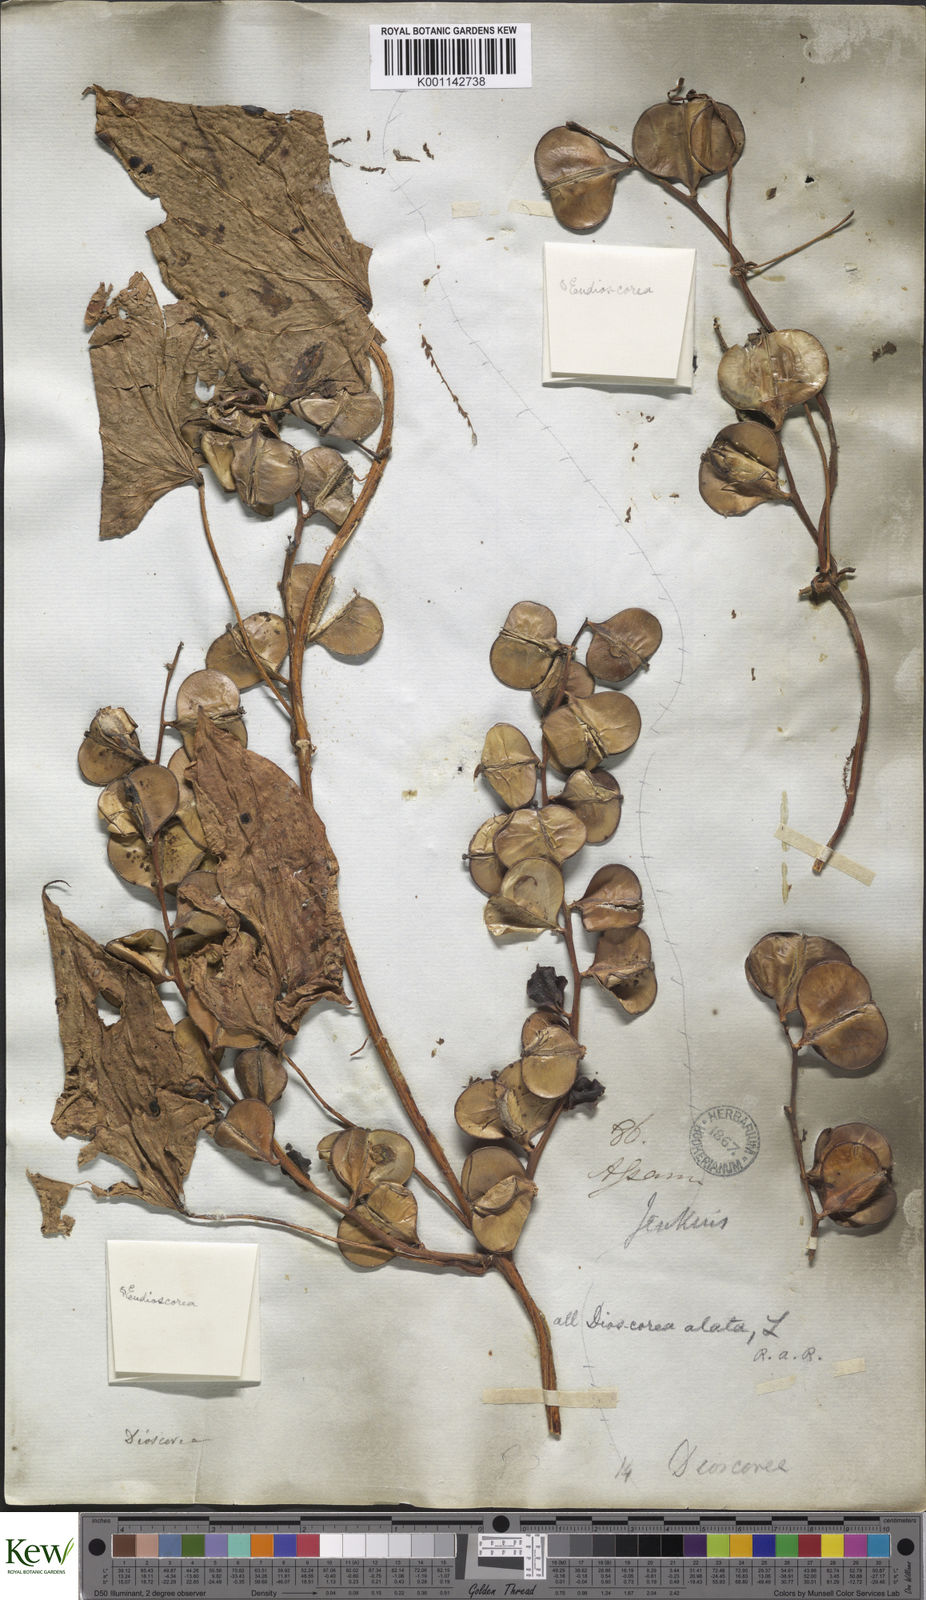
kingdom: Plantae
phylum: Tracheophyta
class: Liliopsida
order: Dioscoreales
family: Dioscoreaceae
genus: Dioscorea
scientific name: Dioscorea alata
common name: Water yam
